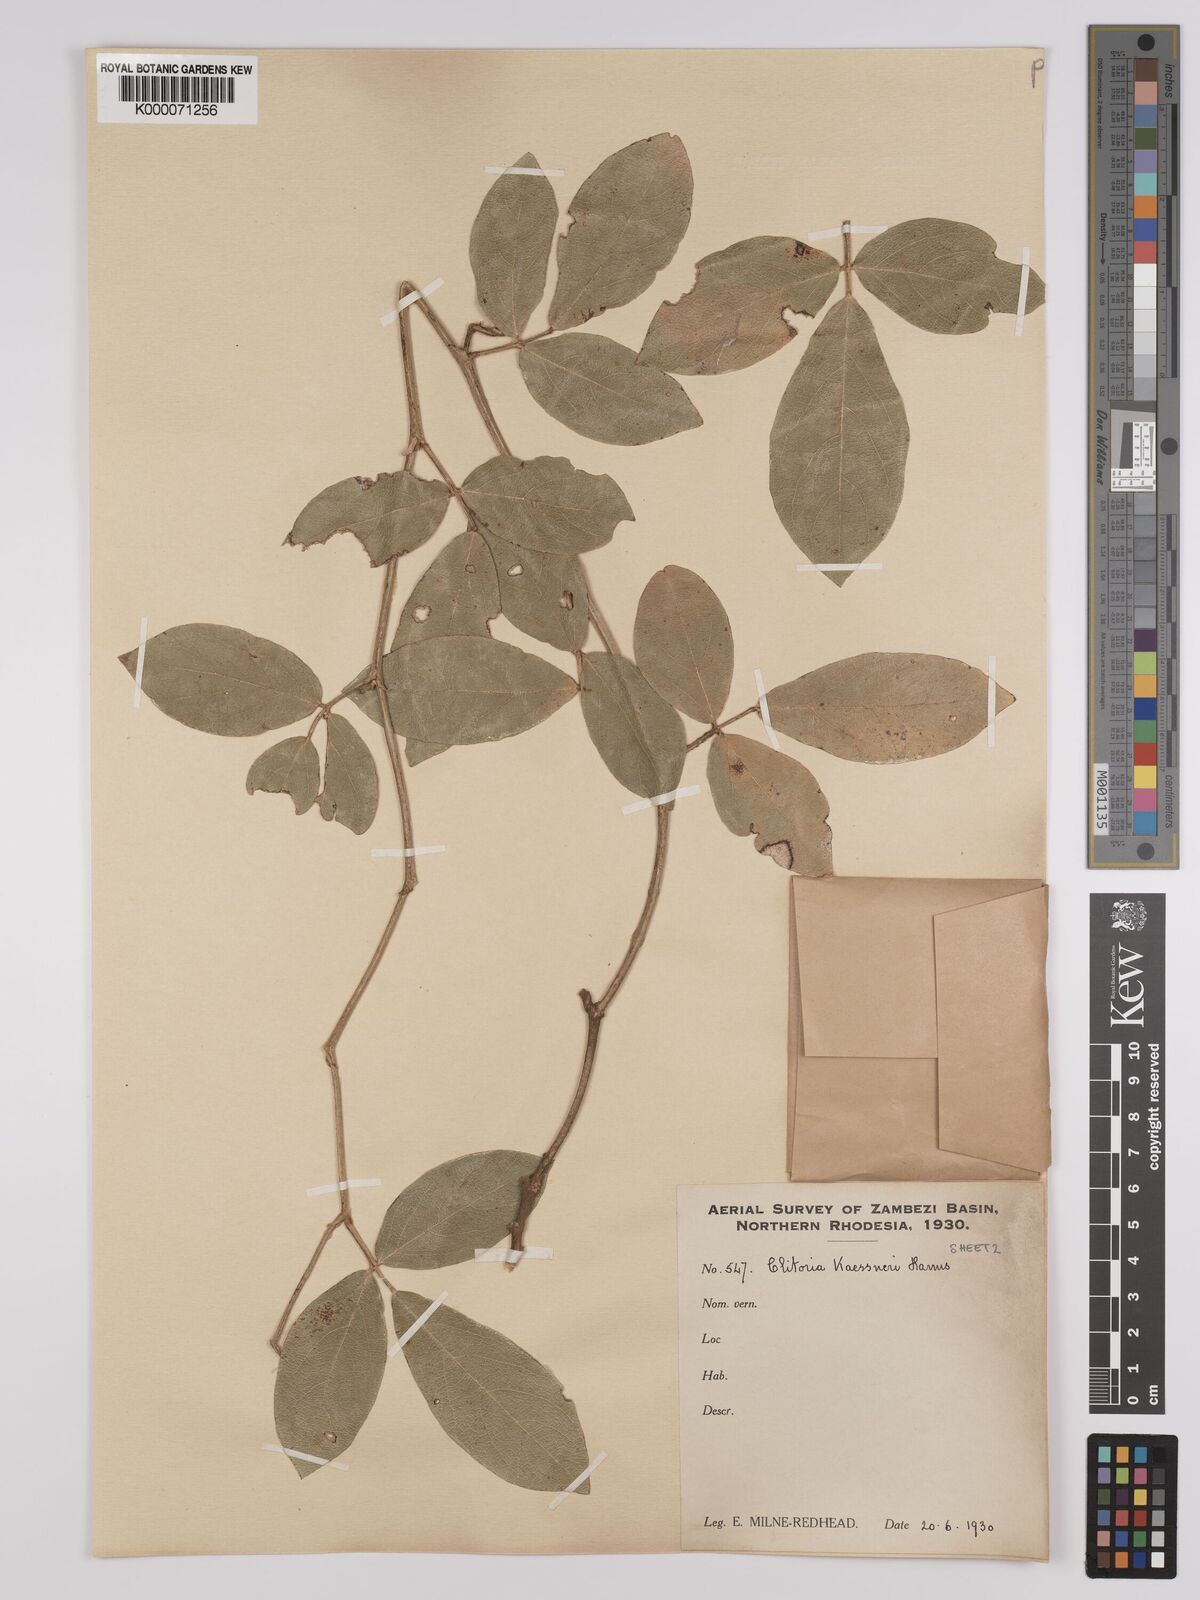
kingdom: Plantae
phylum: Tracheophyta
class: Magnoliopsida
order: Fabales
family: Fabaceae
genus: Clitoria
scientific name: Clitoria kaessneri
